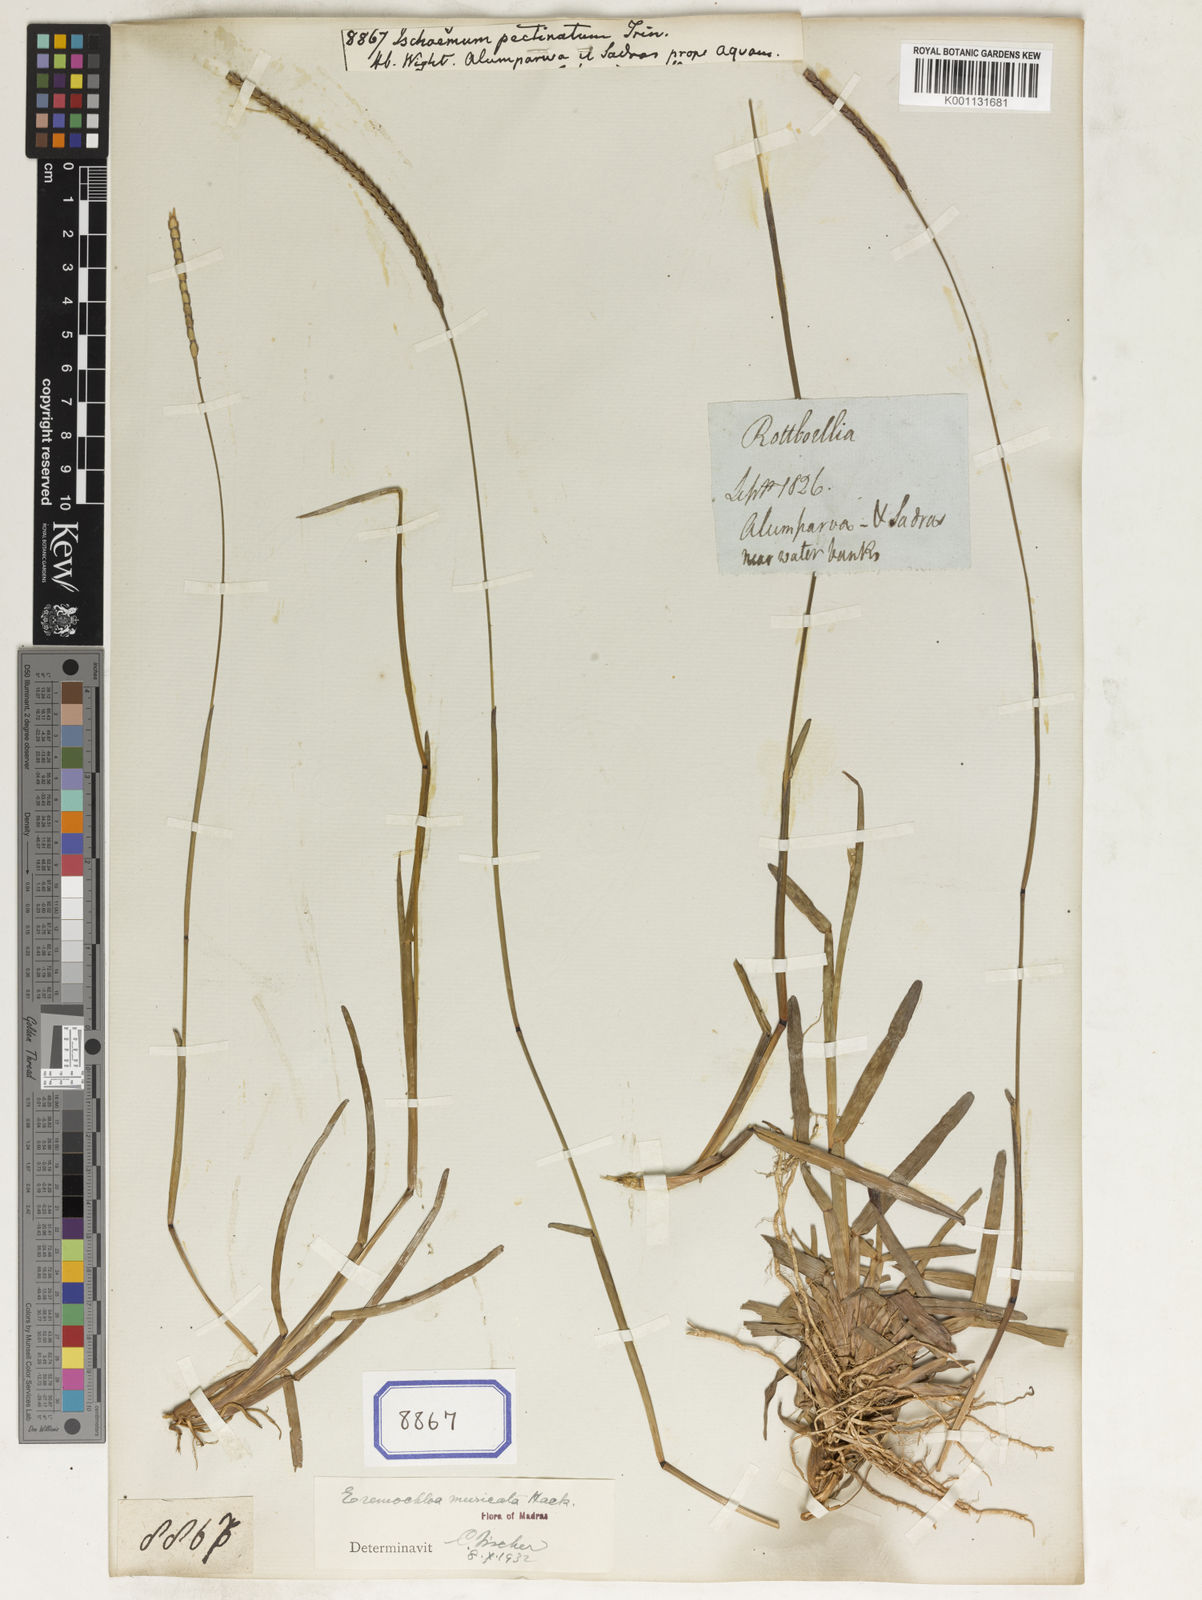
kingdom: Plantae
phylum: Tracheophyta
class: Liliopsida
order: Poales
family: Poaceae
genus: Eremochloa
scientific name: Eremochloa muricata
